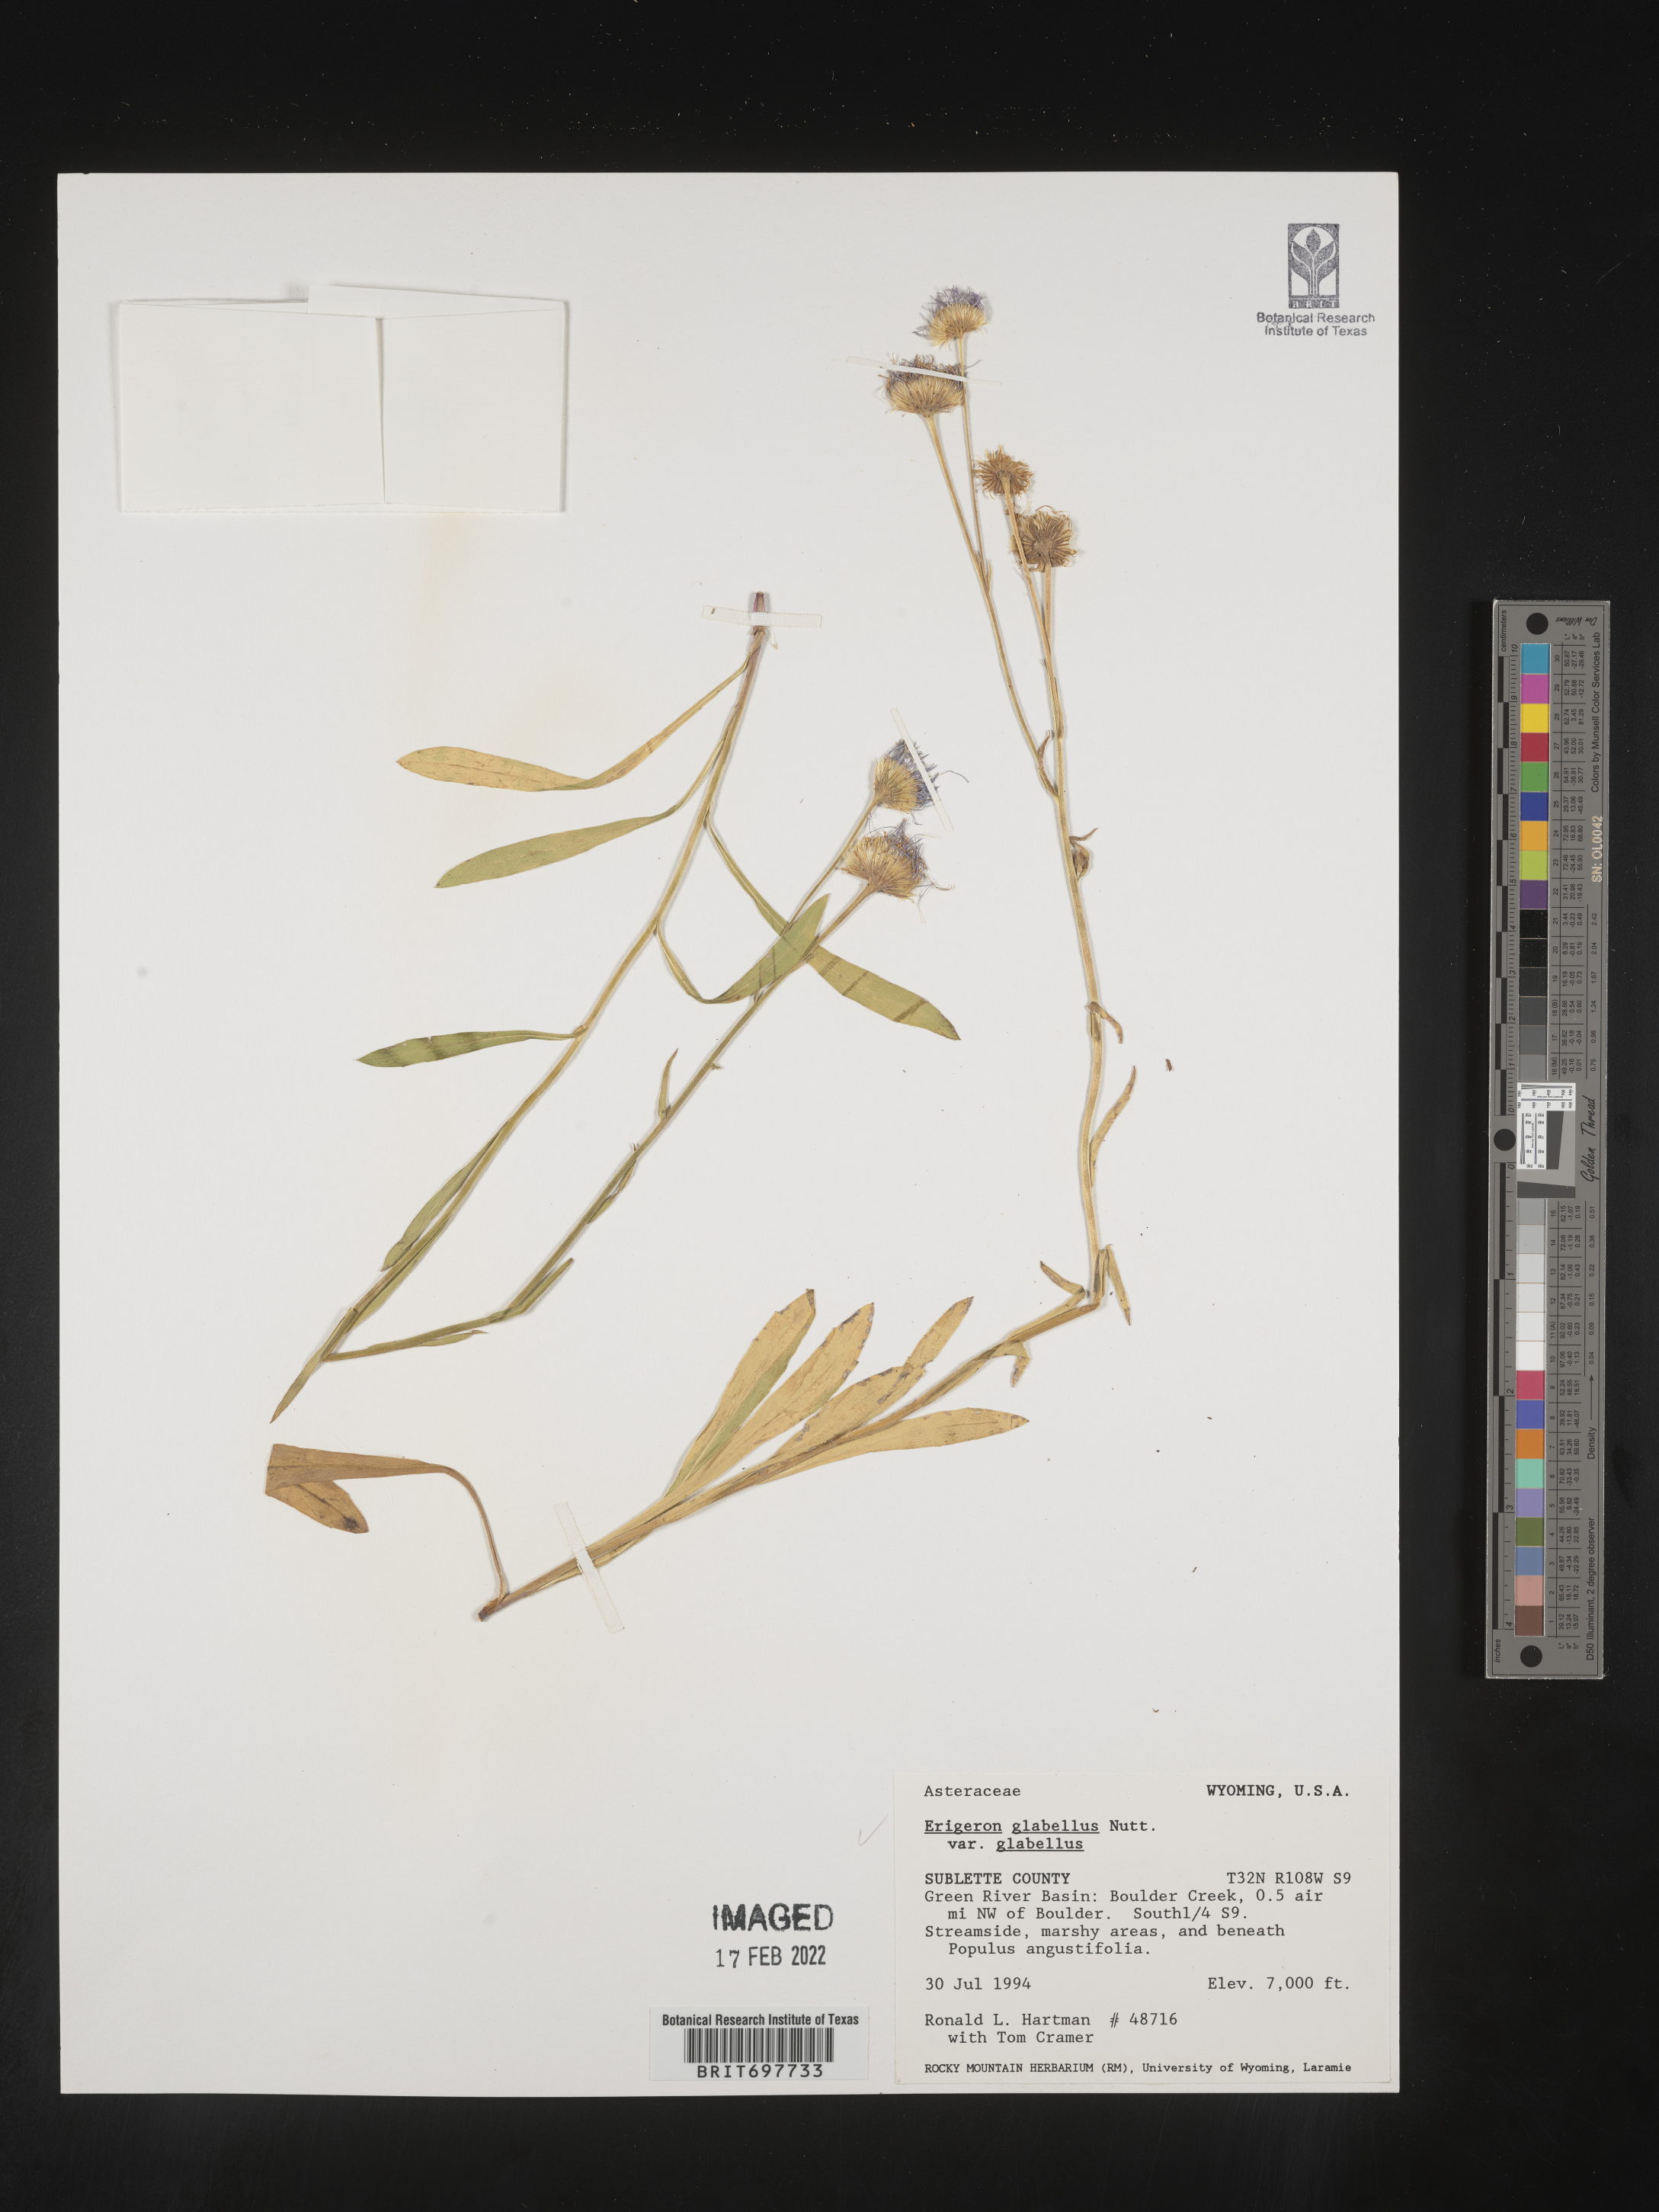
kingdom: Plantae
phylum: Tracheophyta
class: Magnoliopsida
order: Asterales
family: Asteraceae
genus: Erigeron
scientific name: Erigeron glabellus
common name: Smooth fleabane
